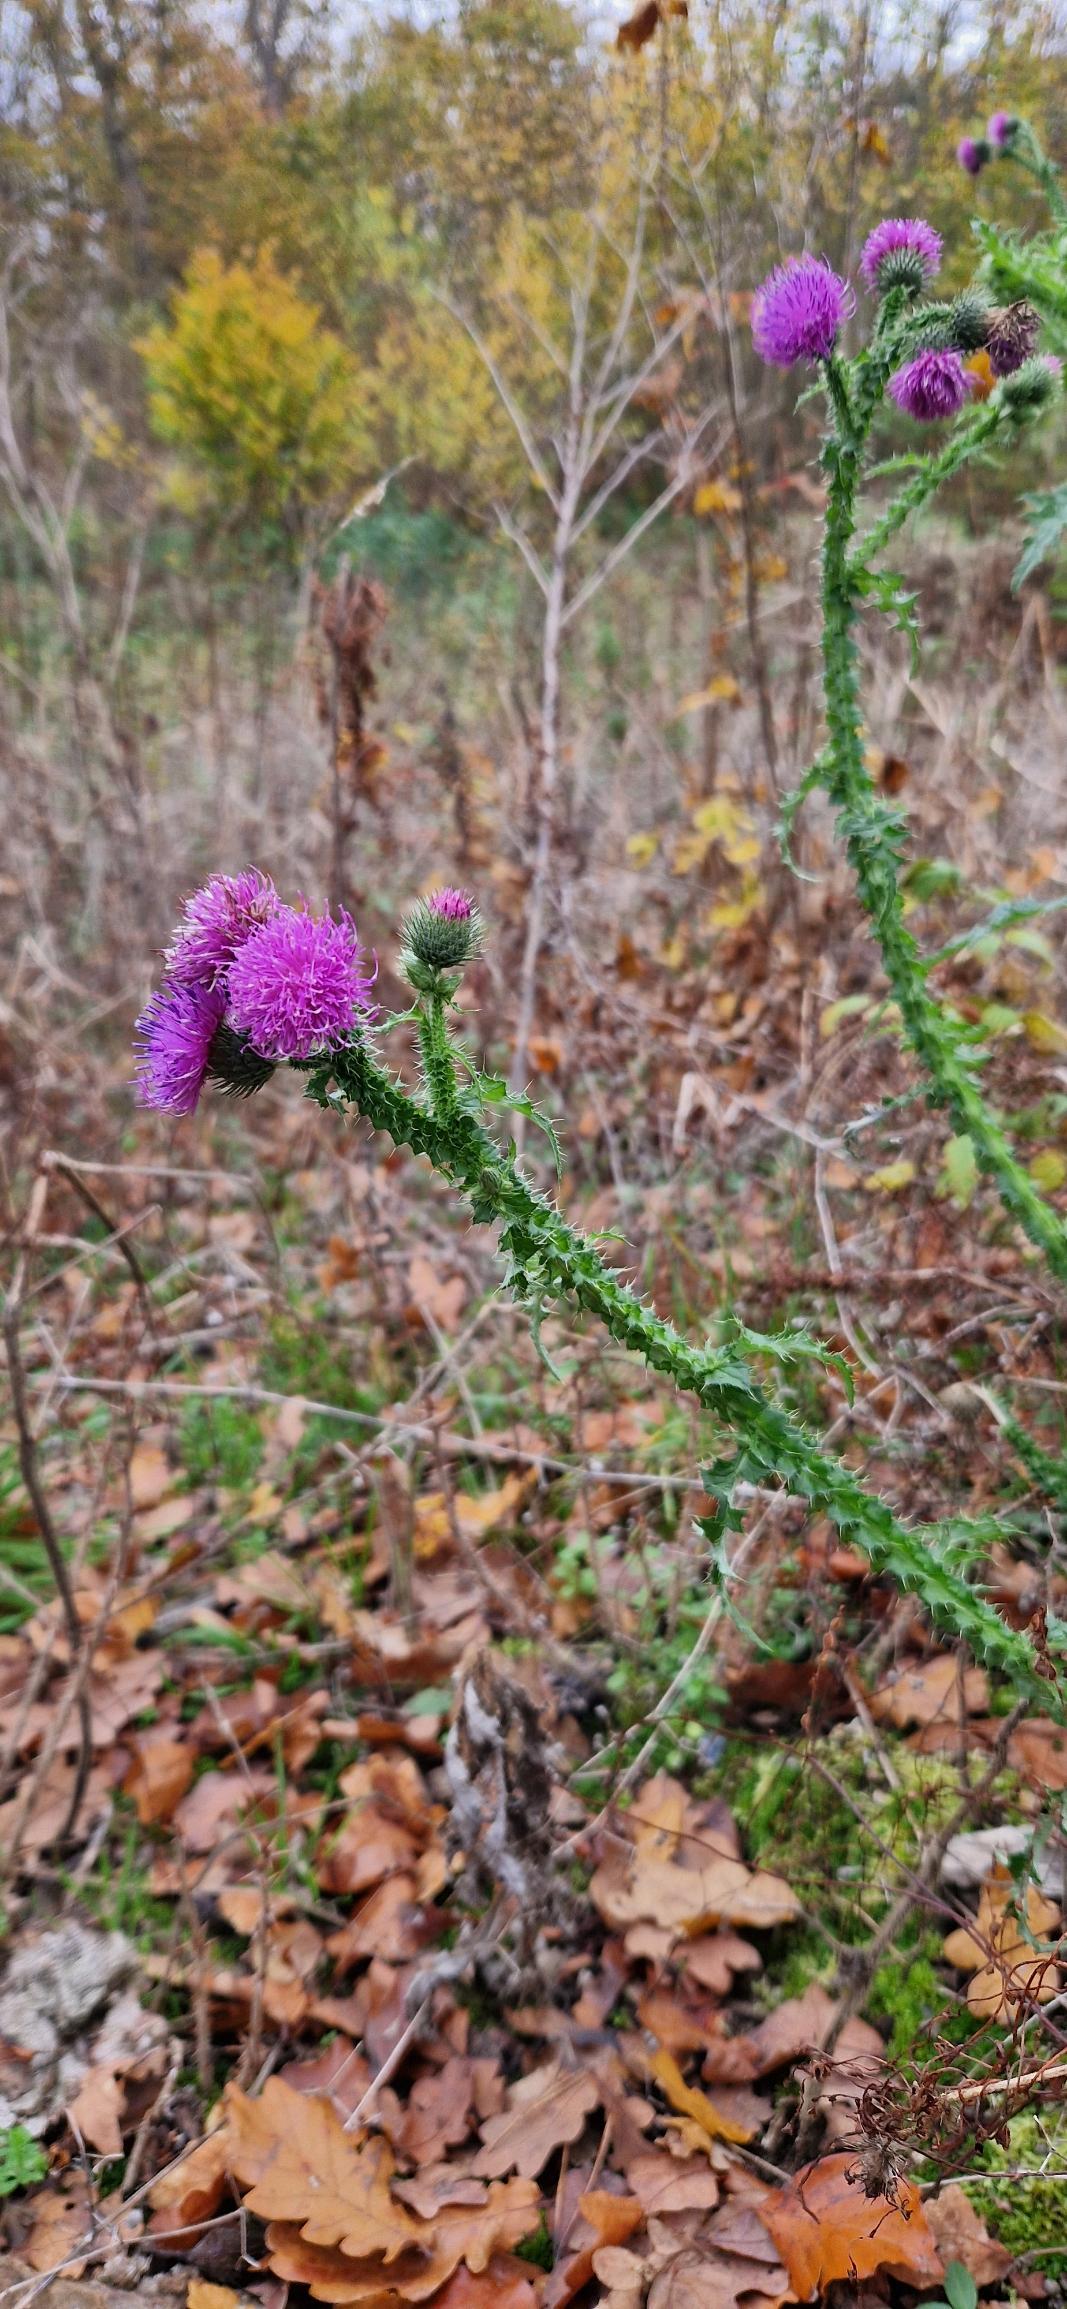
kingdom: Plantae
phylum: Tracheophyta
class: Magnoliopsida
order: Asterales
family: Asteraceae
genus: Carduus
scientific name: Carduus crispus
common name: Kruset tidsel
